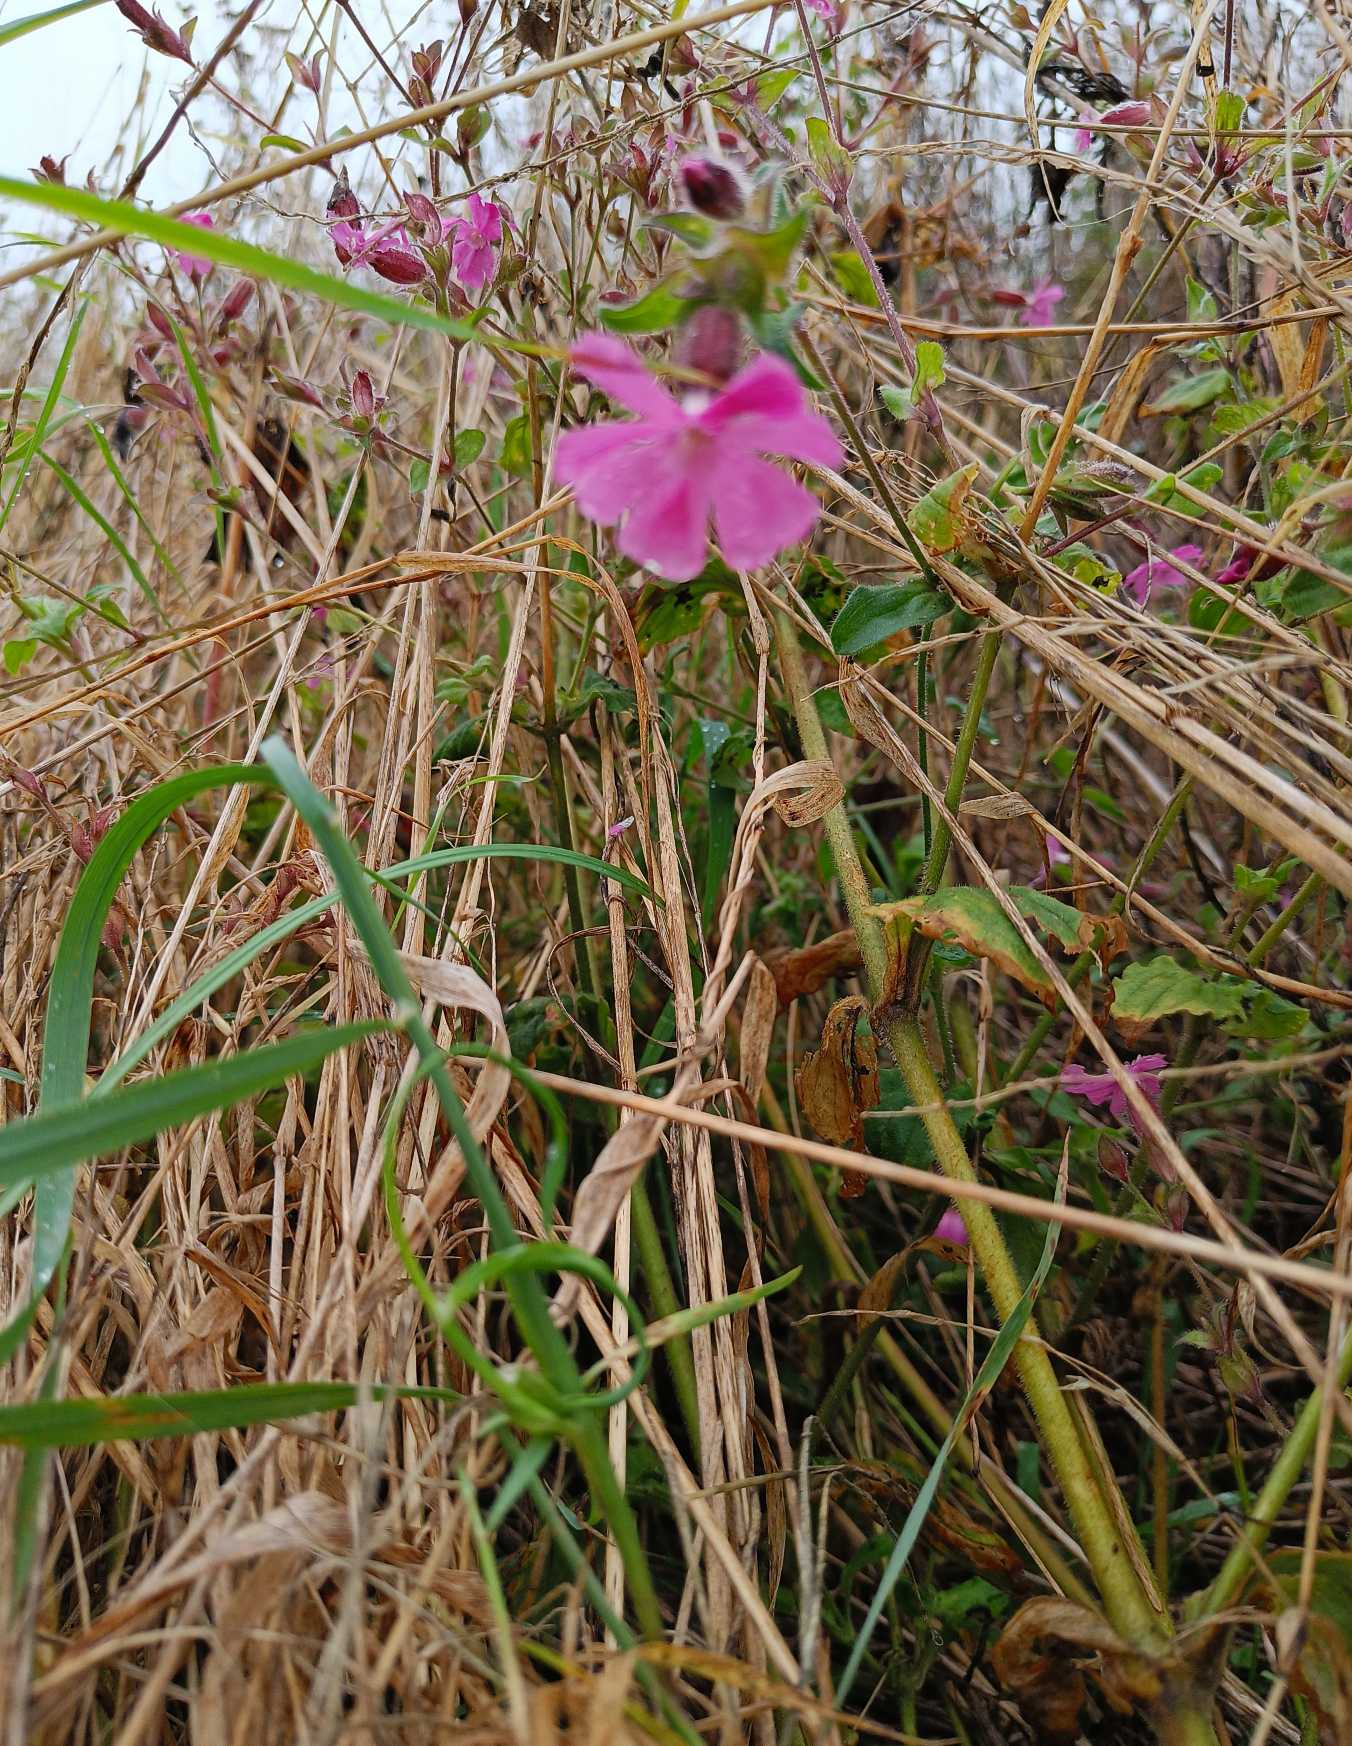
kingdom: Plantae
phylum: Tracheophyta
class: Magnoliopsida
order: Caryophyllales
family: Caryophyllaceae
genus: Silene
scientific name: Silene dioica
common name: Dagpragtstjerne
